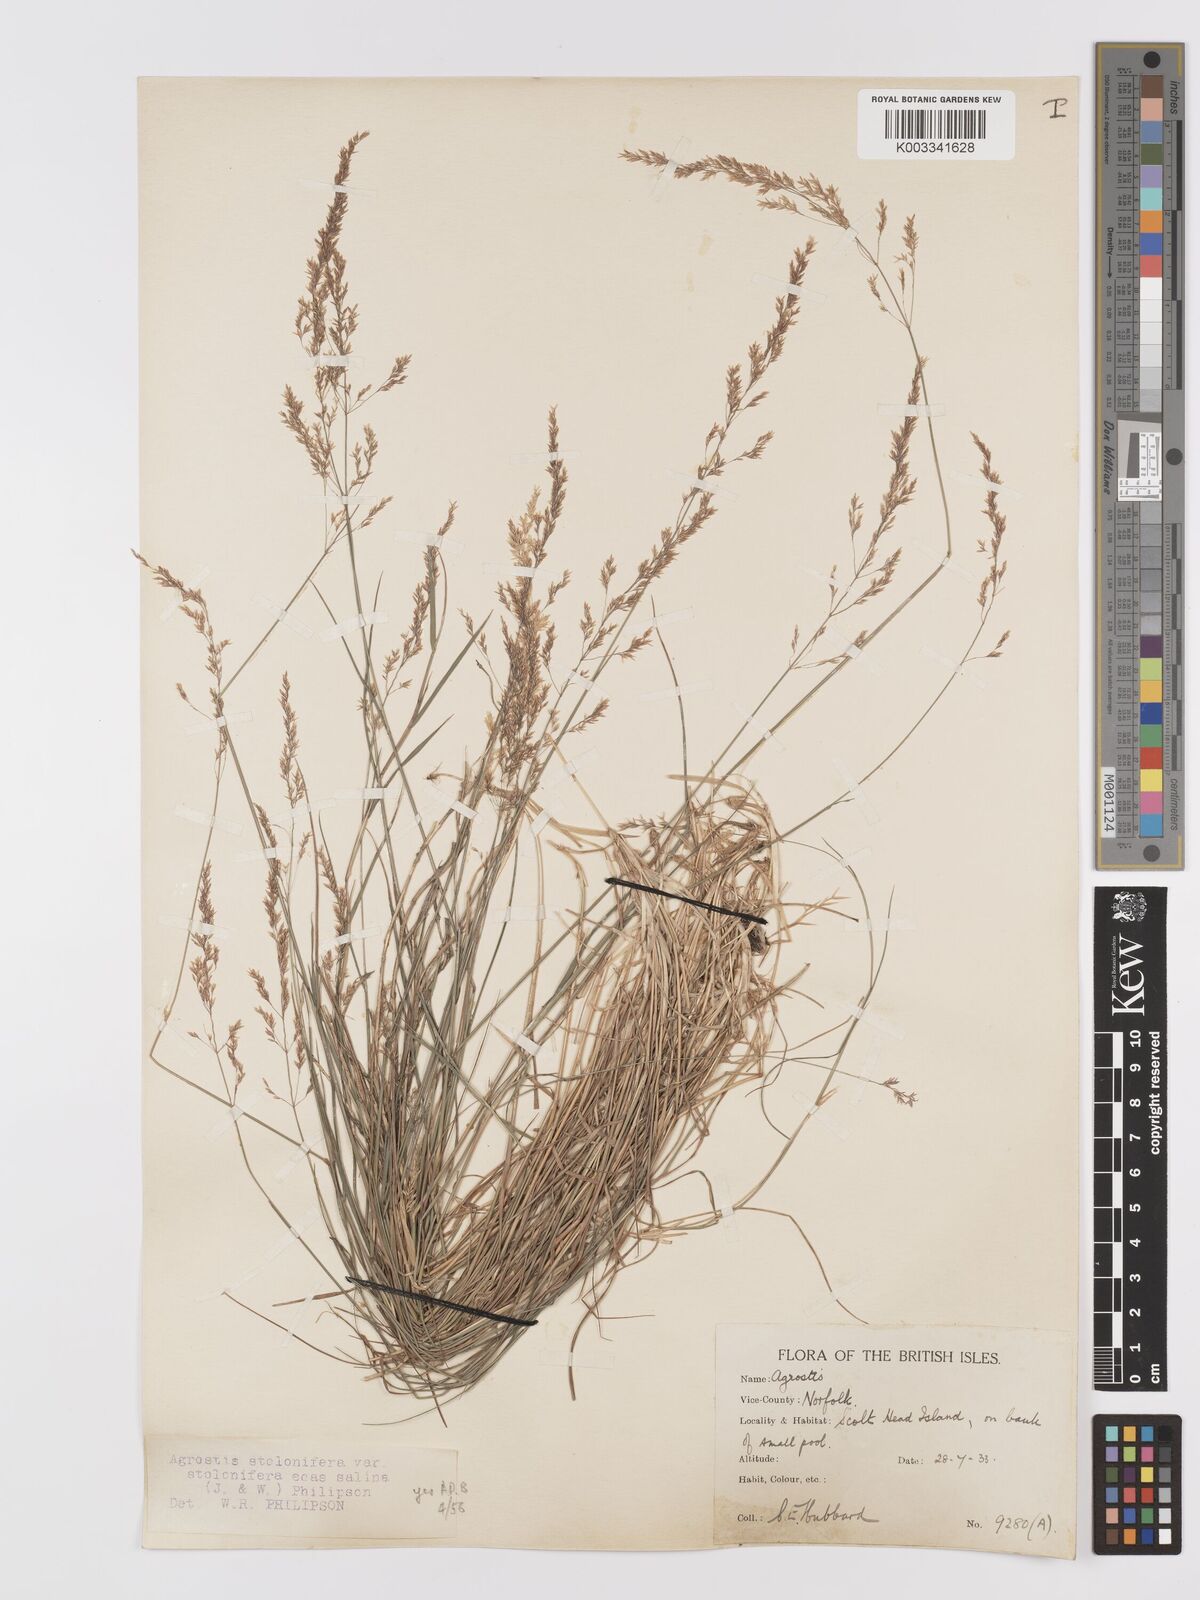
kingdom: Plantae
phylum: Tracheophyta
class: Liliopsida
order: Poales
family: Poaceae
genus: Agrostis
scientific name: Agrostis stolonifera
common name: Creeping bentgrass
